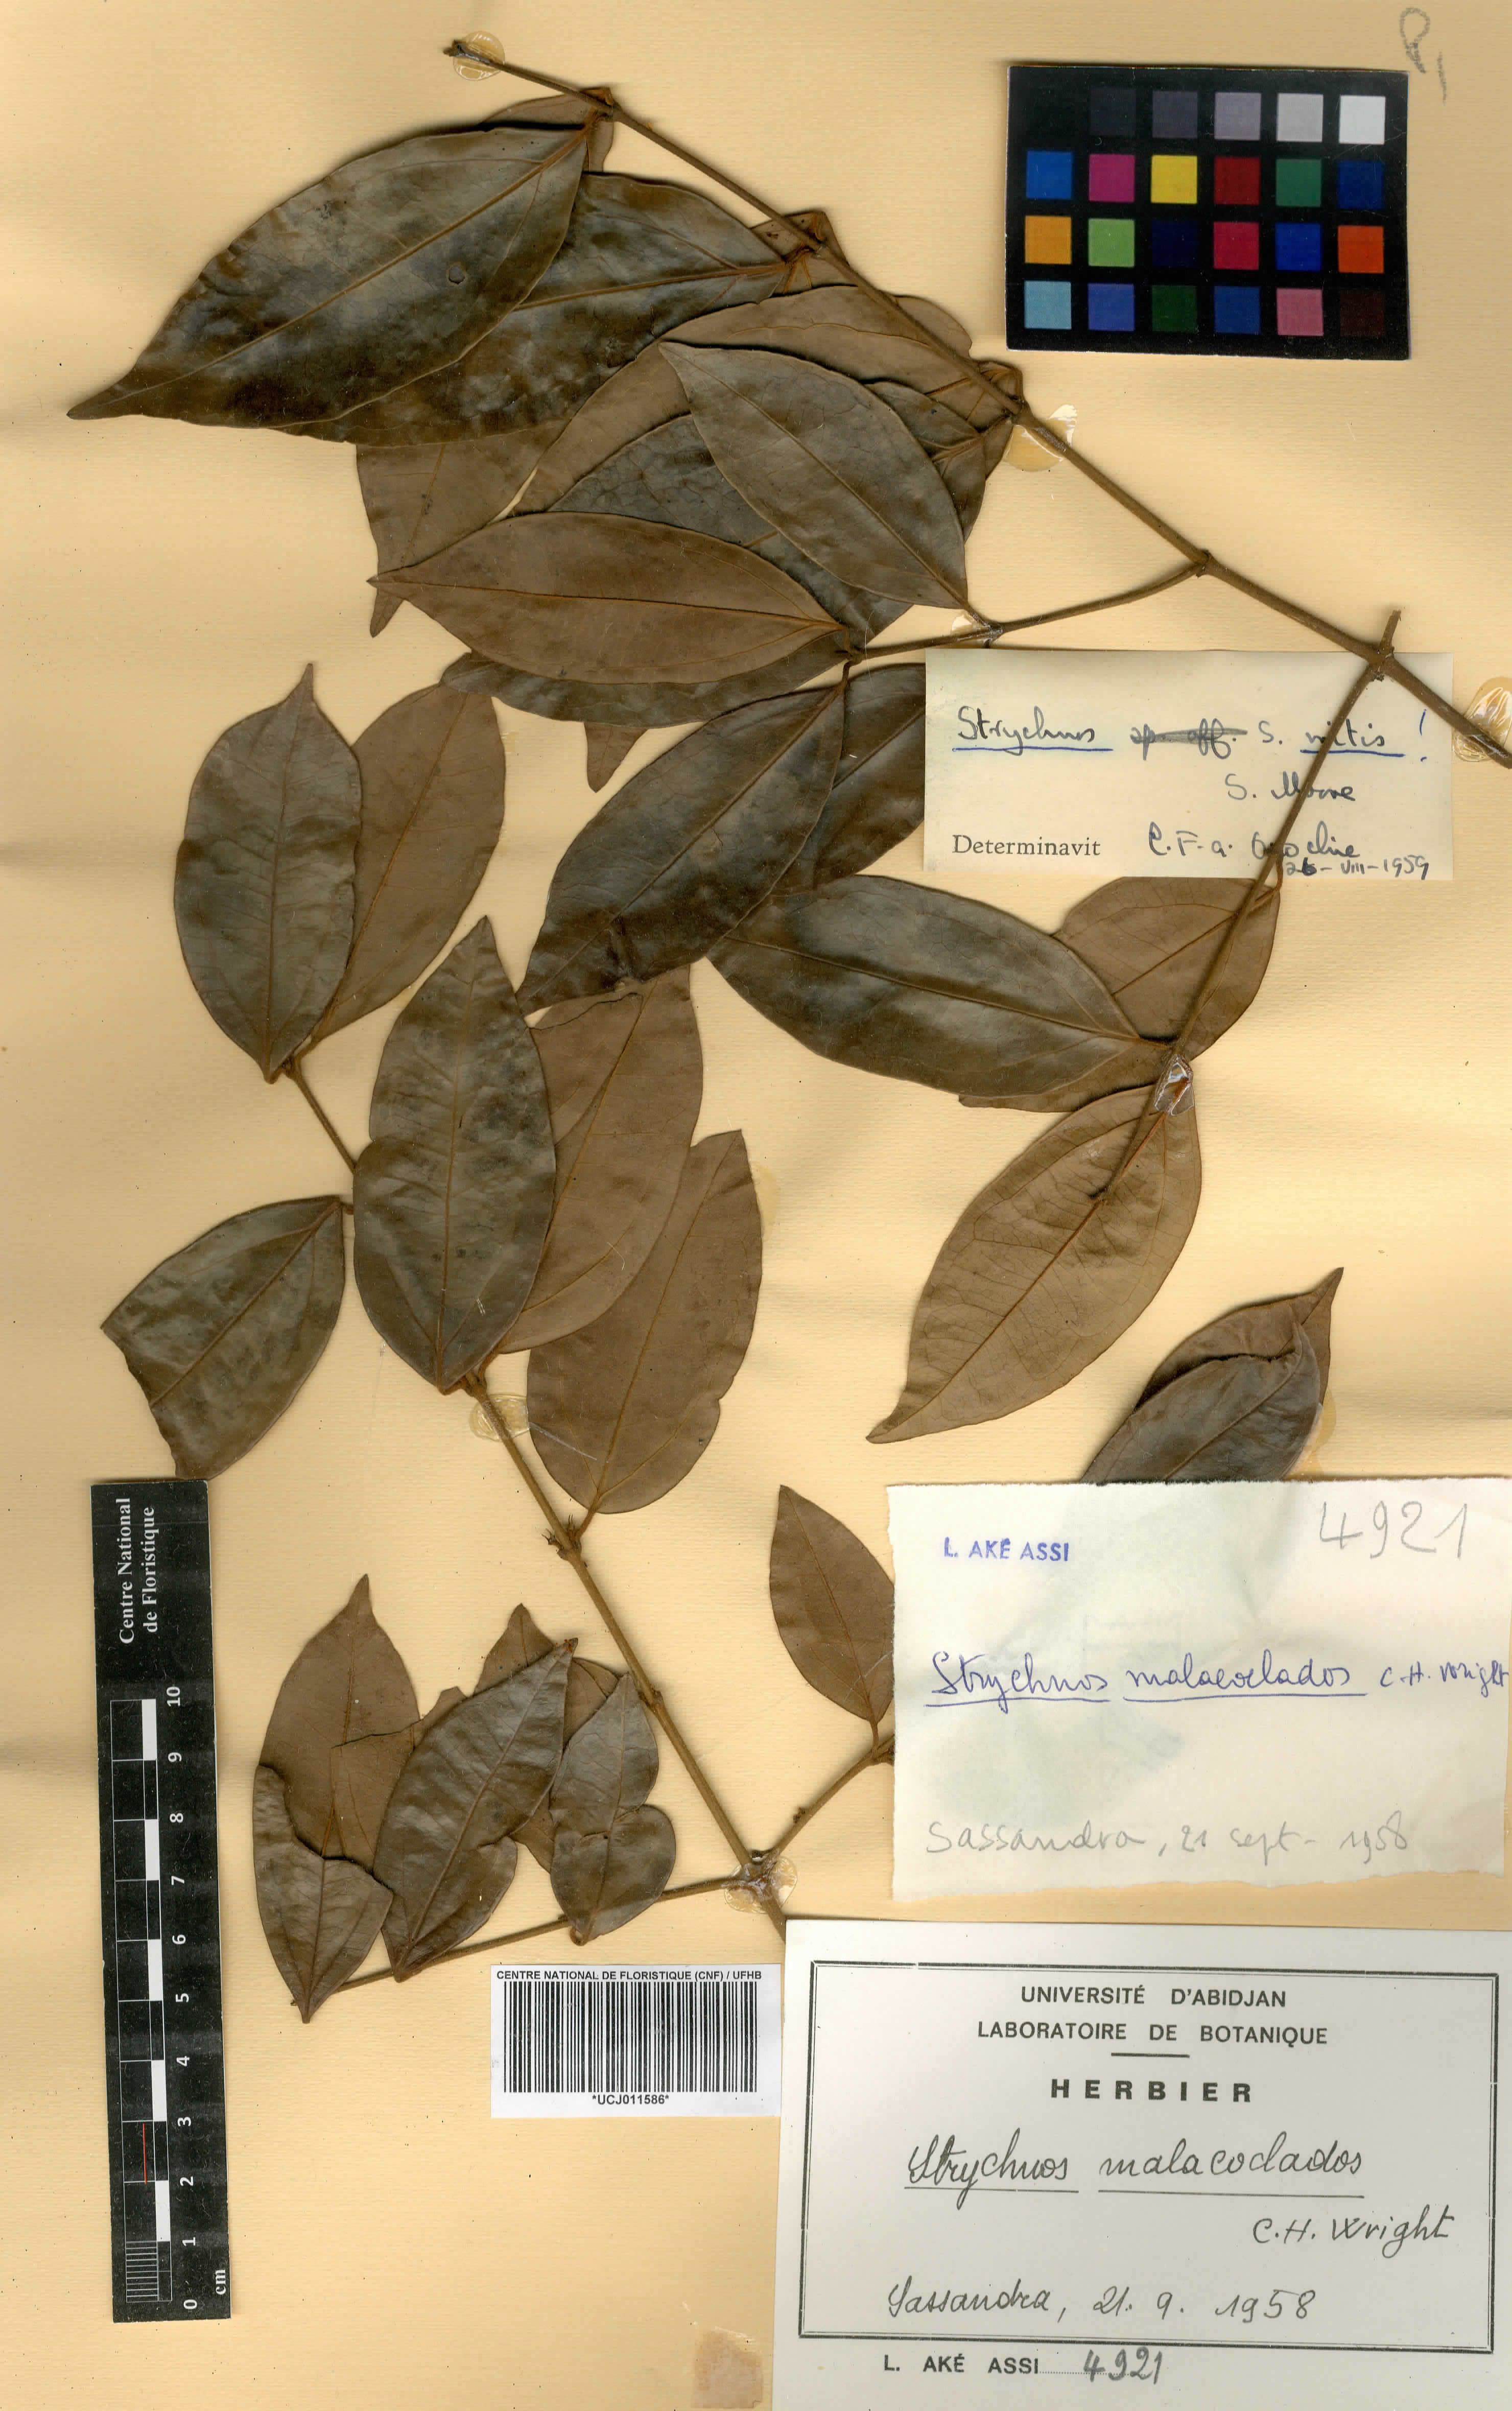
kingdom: Plantae
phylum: Tracheophyta
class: Magnoliopsida
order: Gentianales
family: Loganiaceae
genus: Strychnos
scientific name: Strychnos malacoclados
